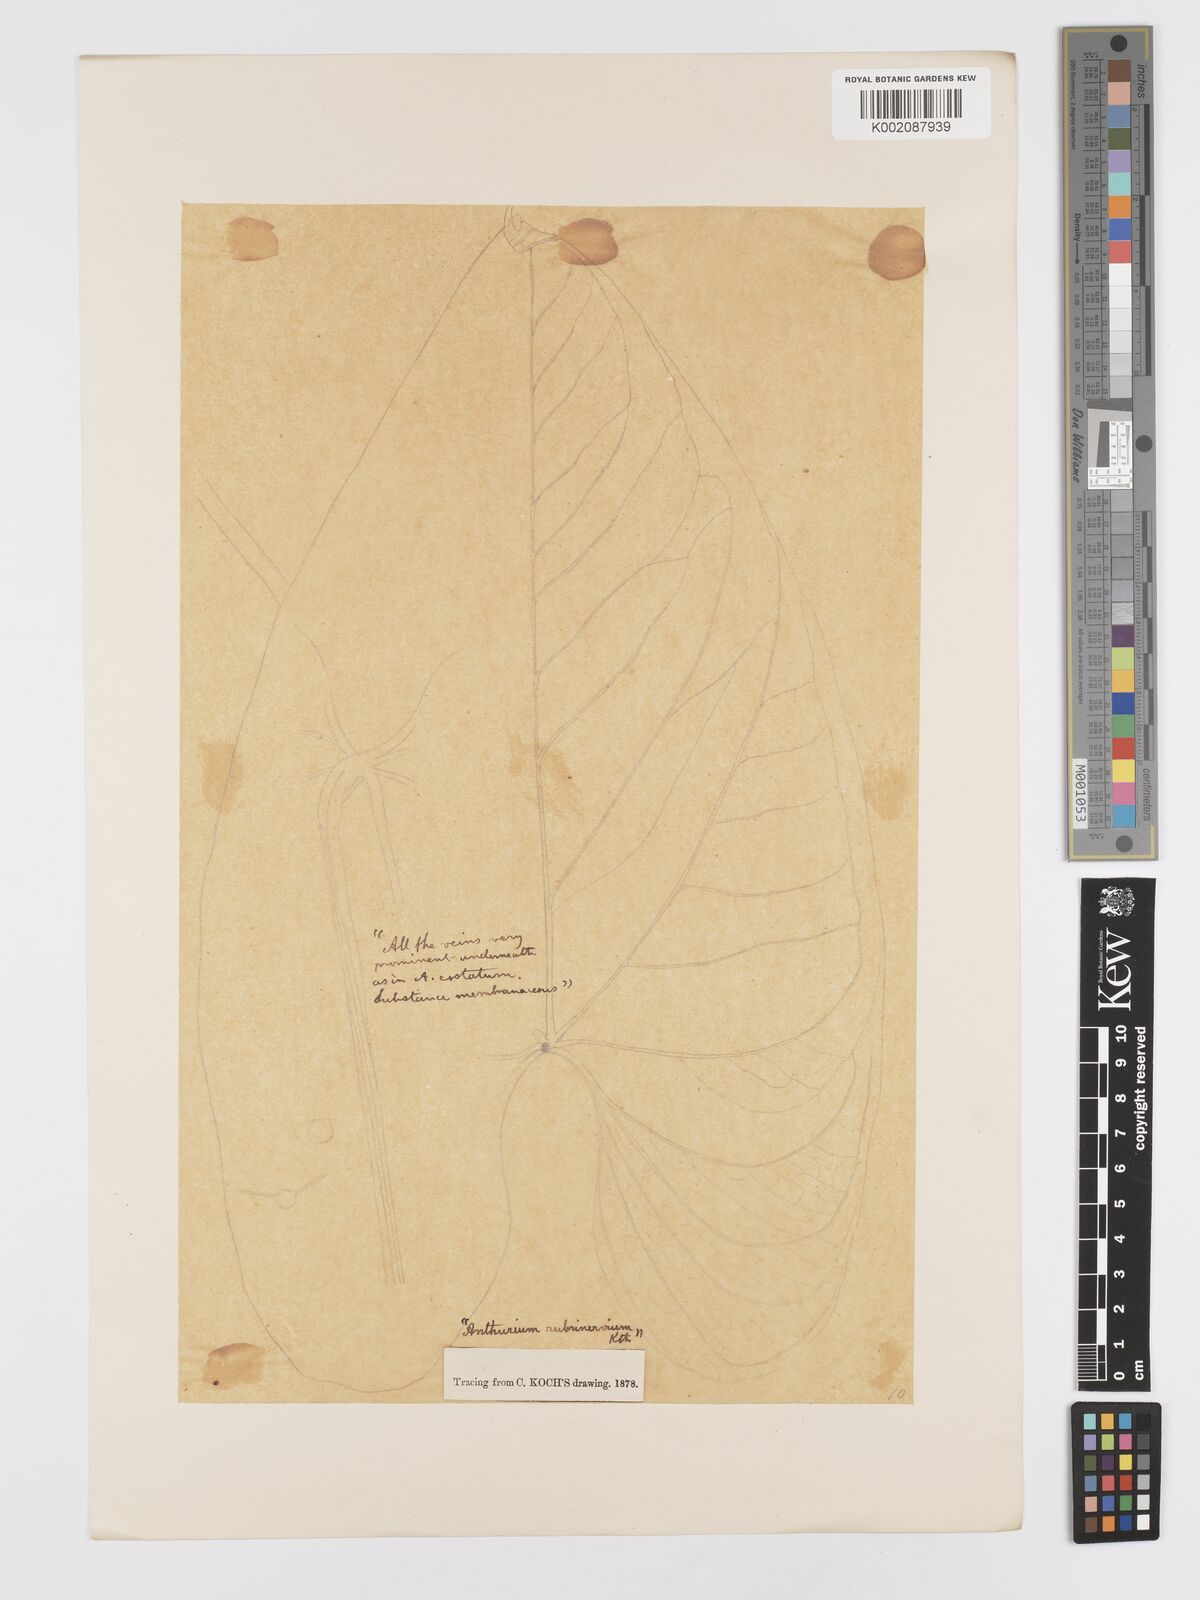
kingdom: Plantae
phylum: Tracheophyta
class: Liliopsida
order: Alismatales
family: Araceae
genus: Anthurium
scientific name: Anthurium sagittatum
